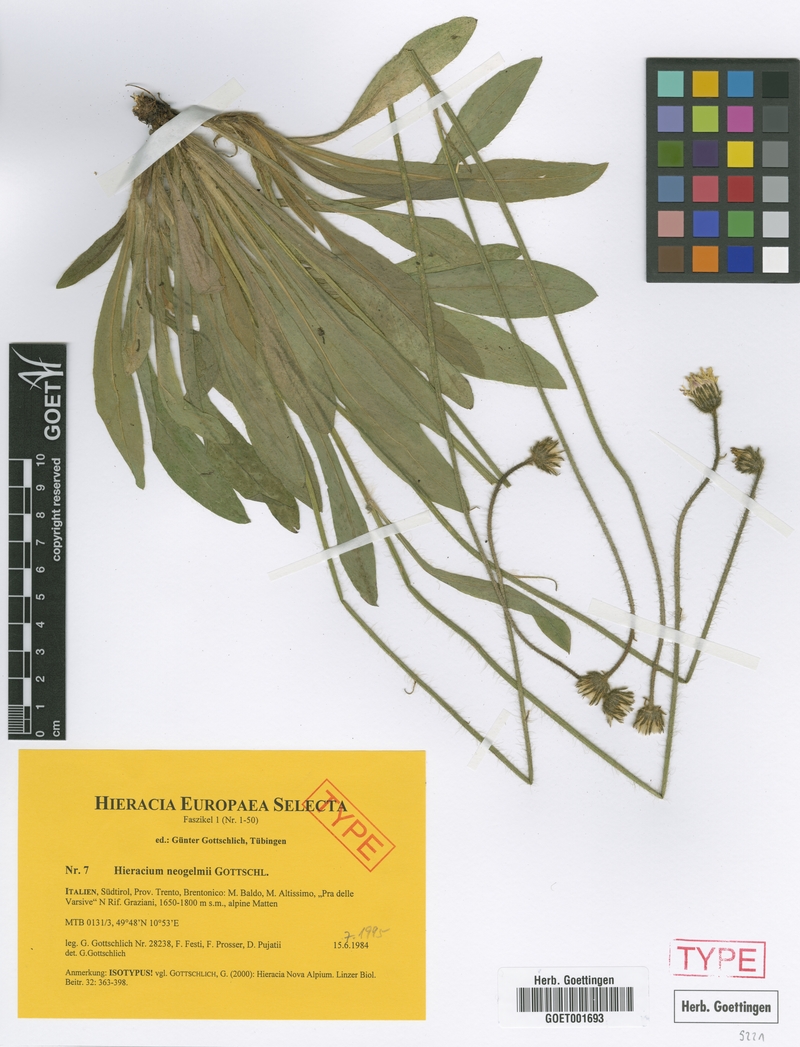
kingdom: Plantae
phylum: Tracheophyta
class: Magnoliopsida
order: Asterales
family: Asteraceae
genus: Pilosella
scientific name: Pilosella neogelmii
